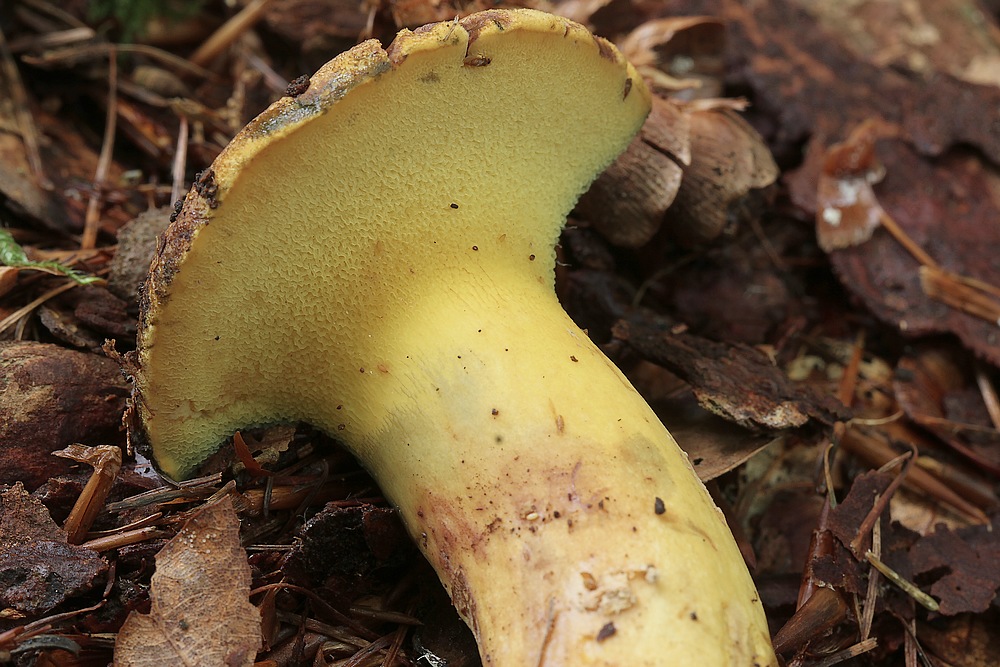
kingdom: Fungi
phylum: Basidiomycota
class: Agaricomycetes
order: Boletales
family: Boletaceae
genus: Buchwaldoboletus
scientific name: Buchwaldoboletus lignicola
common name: stødrørhat
